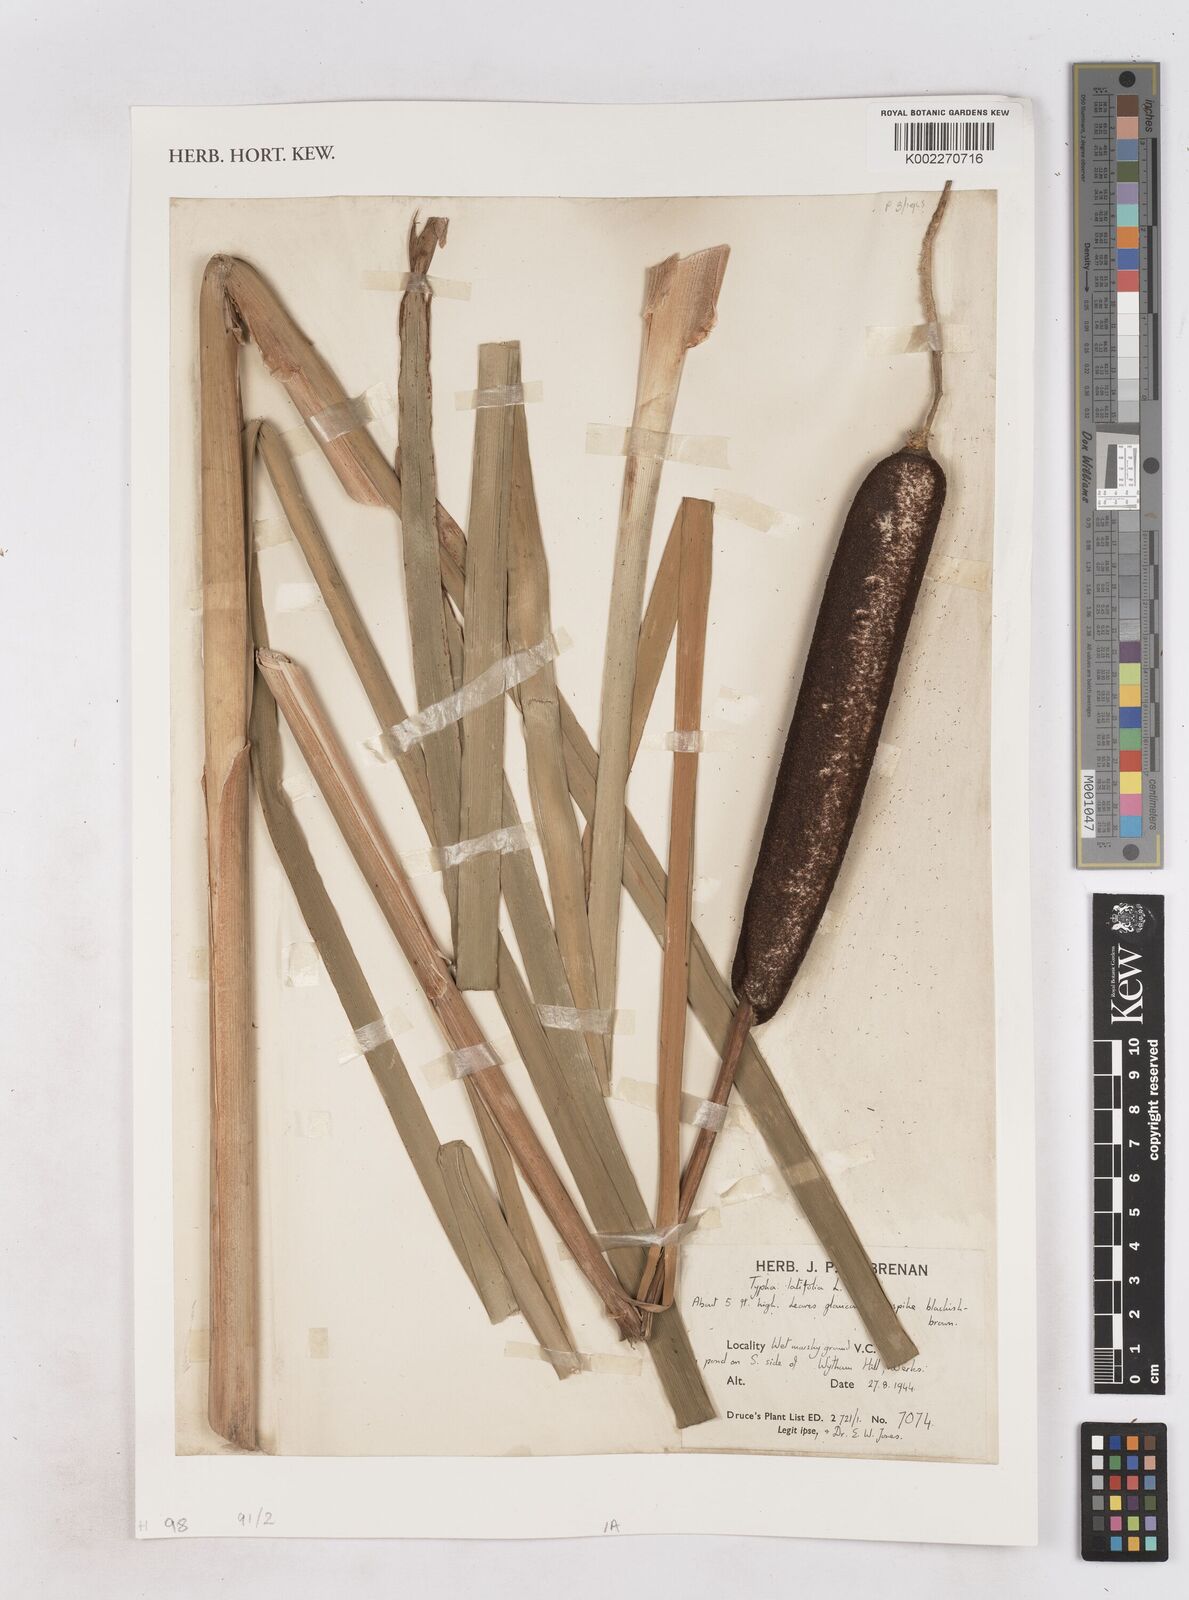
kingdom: Plantae
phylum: Tracheophyta
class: Liliopsida
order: Poales
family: Typhaceae
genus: Typha
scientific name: Typha latifolia
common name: Broadleaf cattail
